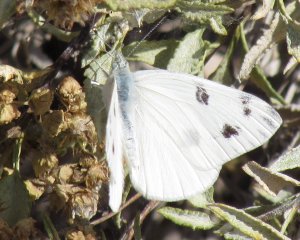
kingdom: Animalia
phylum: Arthropoda
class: Insecta
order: Lepidoptera
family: Pieridae
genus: Pontia
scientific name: Pontia protodice
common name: Checkered White
